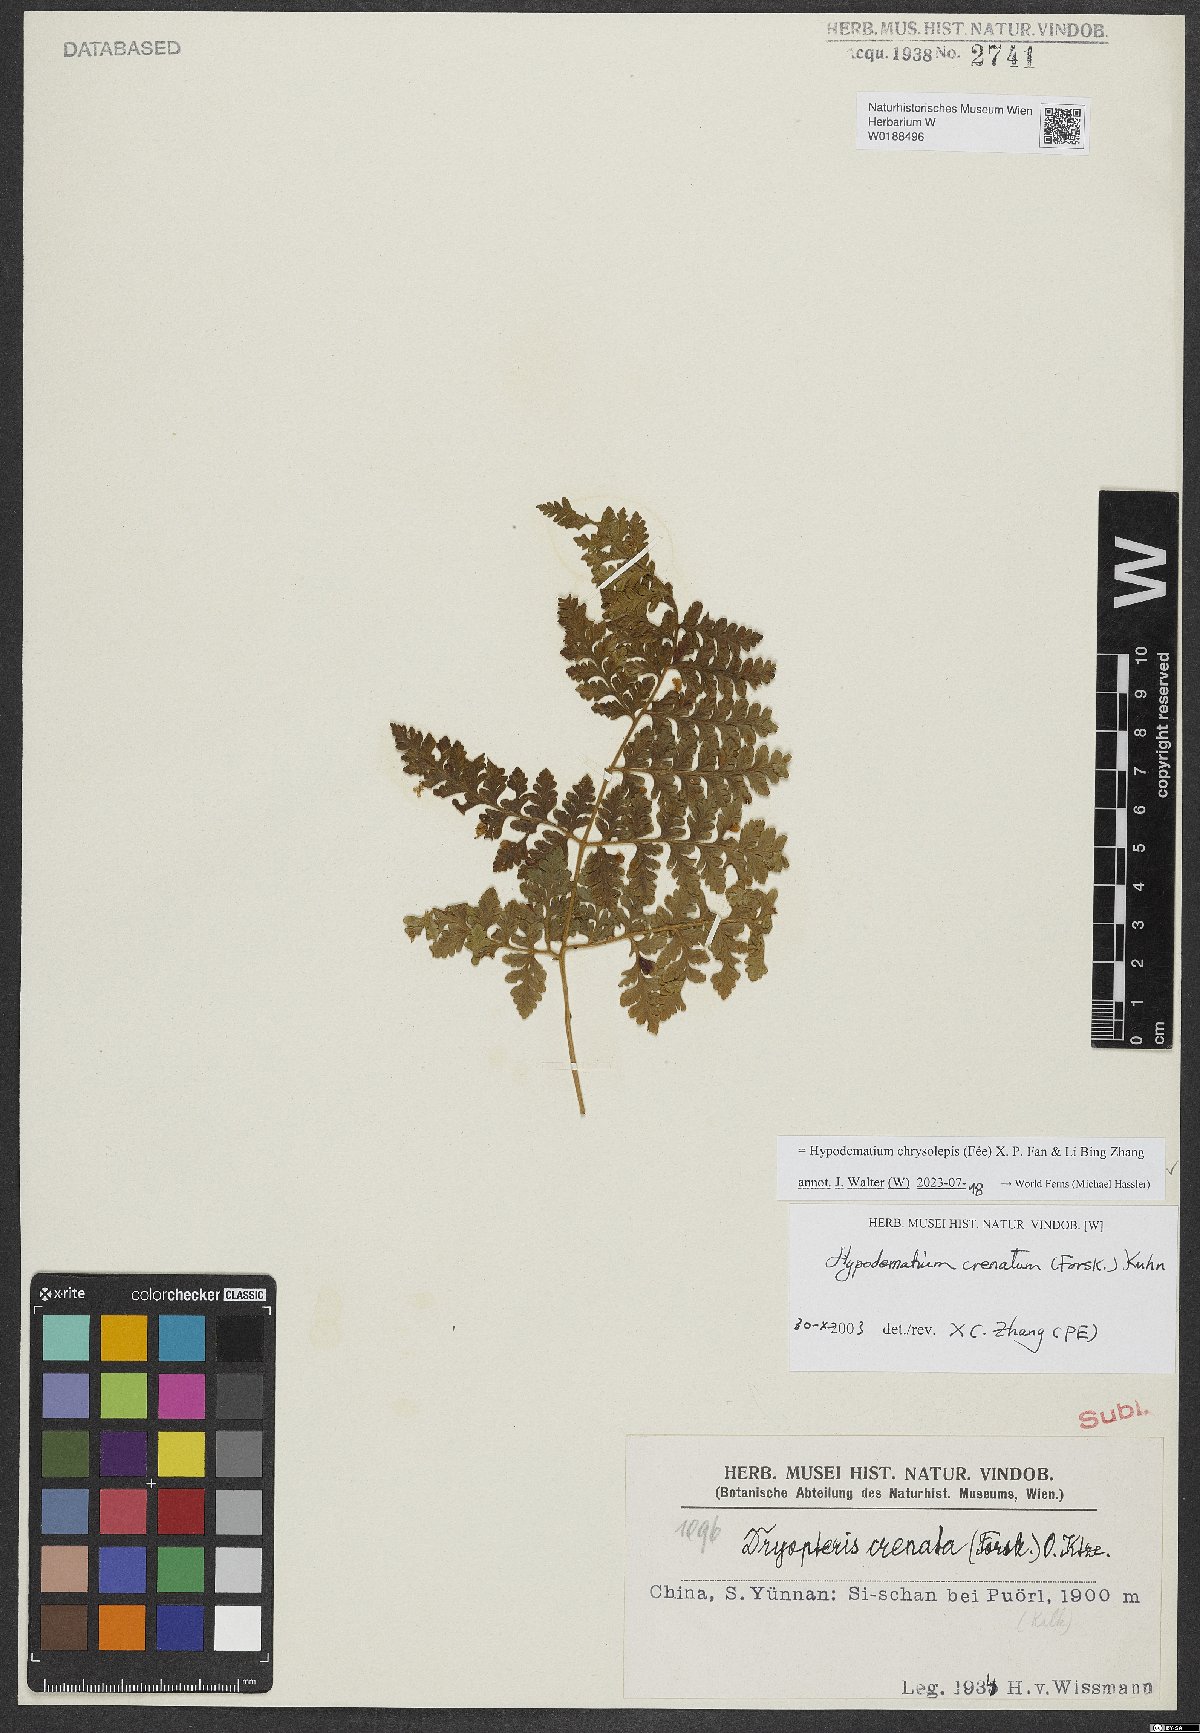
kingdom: Plantae
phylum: Tracheophyta
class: Polypodiopsida
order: Polypodiales
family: Hypodematiaceae
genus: Hypodematium
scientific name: Hypodematium chrysolepis
